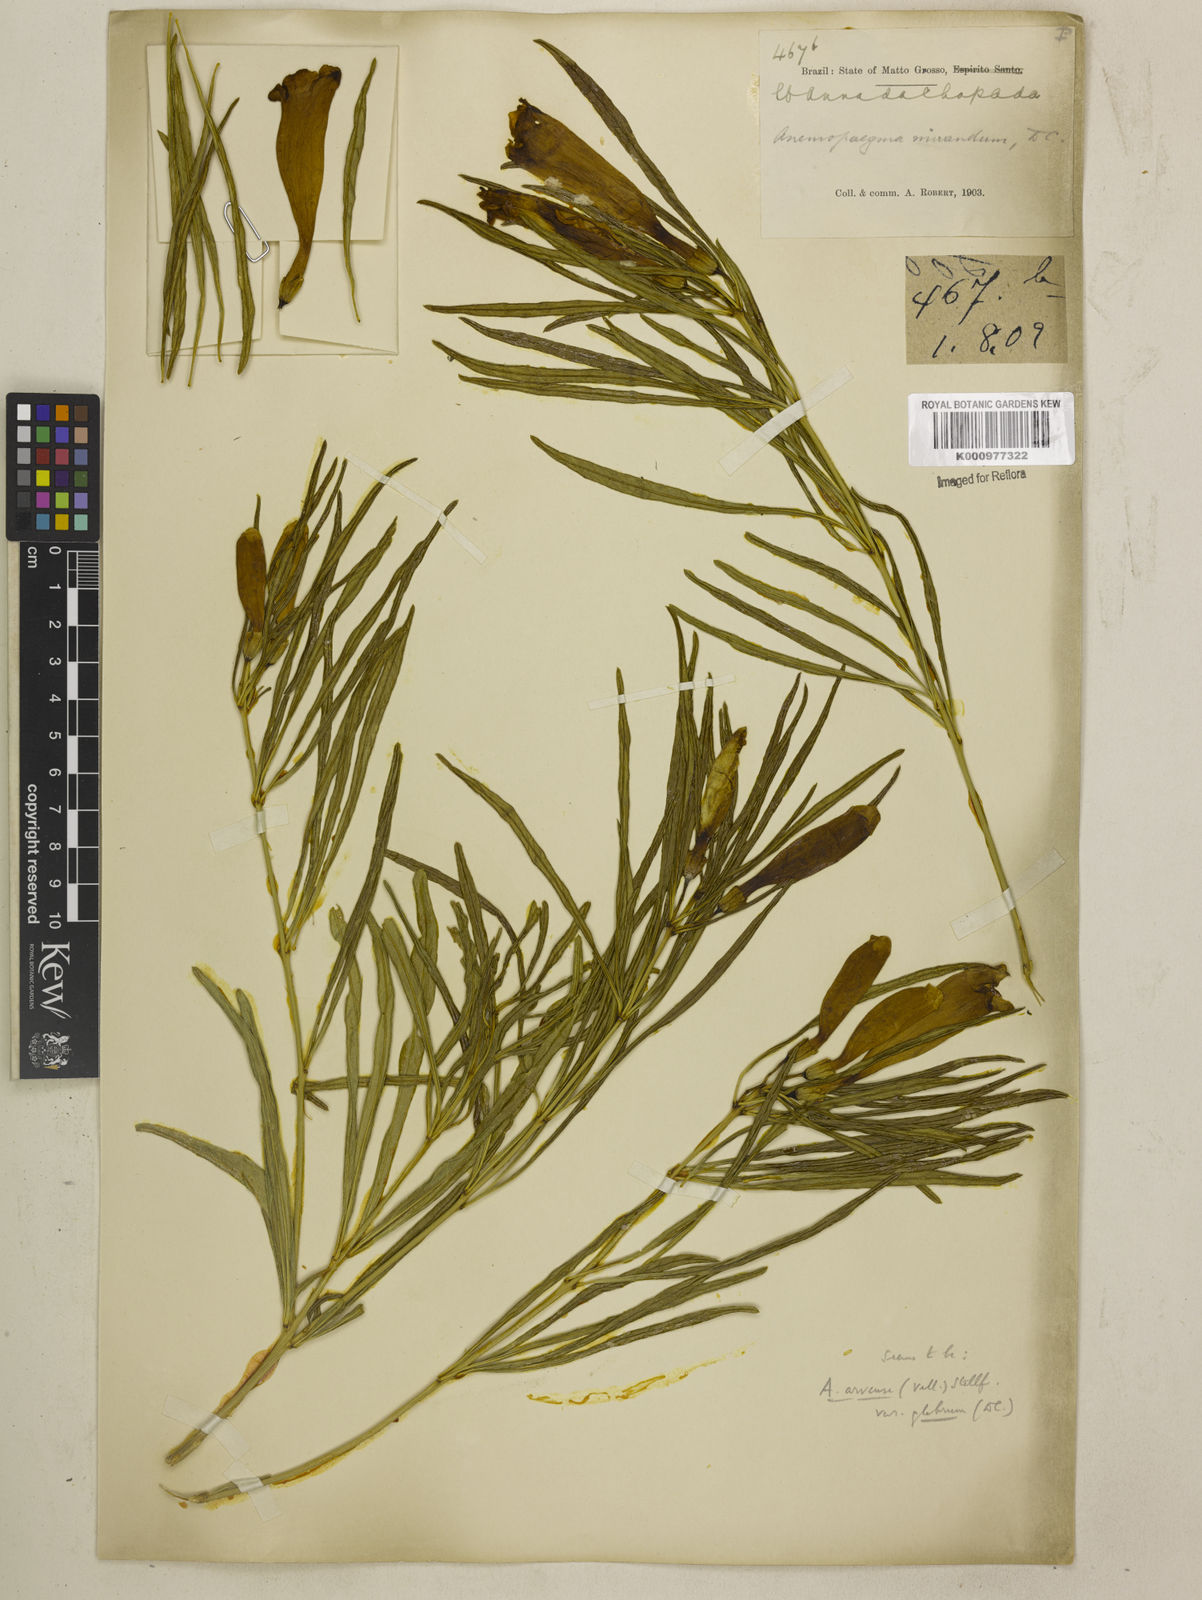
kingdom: Plantae
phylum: Tracheophyta
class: Magnoliopsida
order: Lamiales
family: Bignoniaceae
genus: Anemopaegma
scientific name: Anemopaegma arvense
